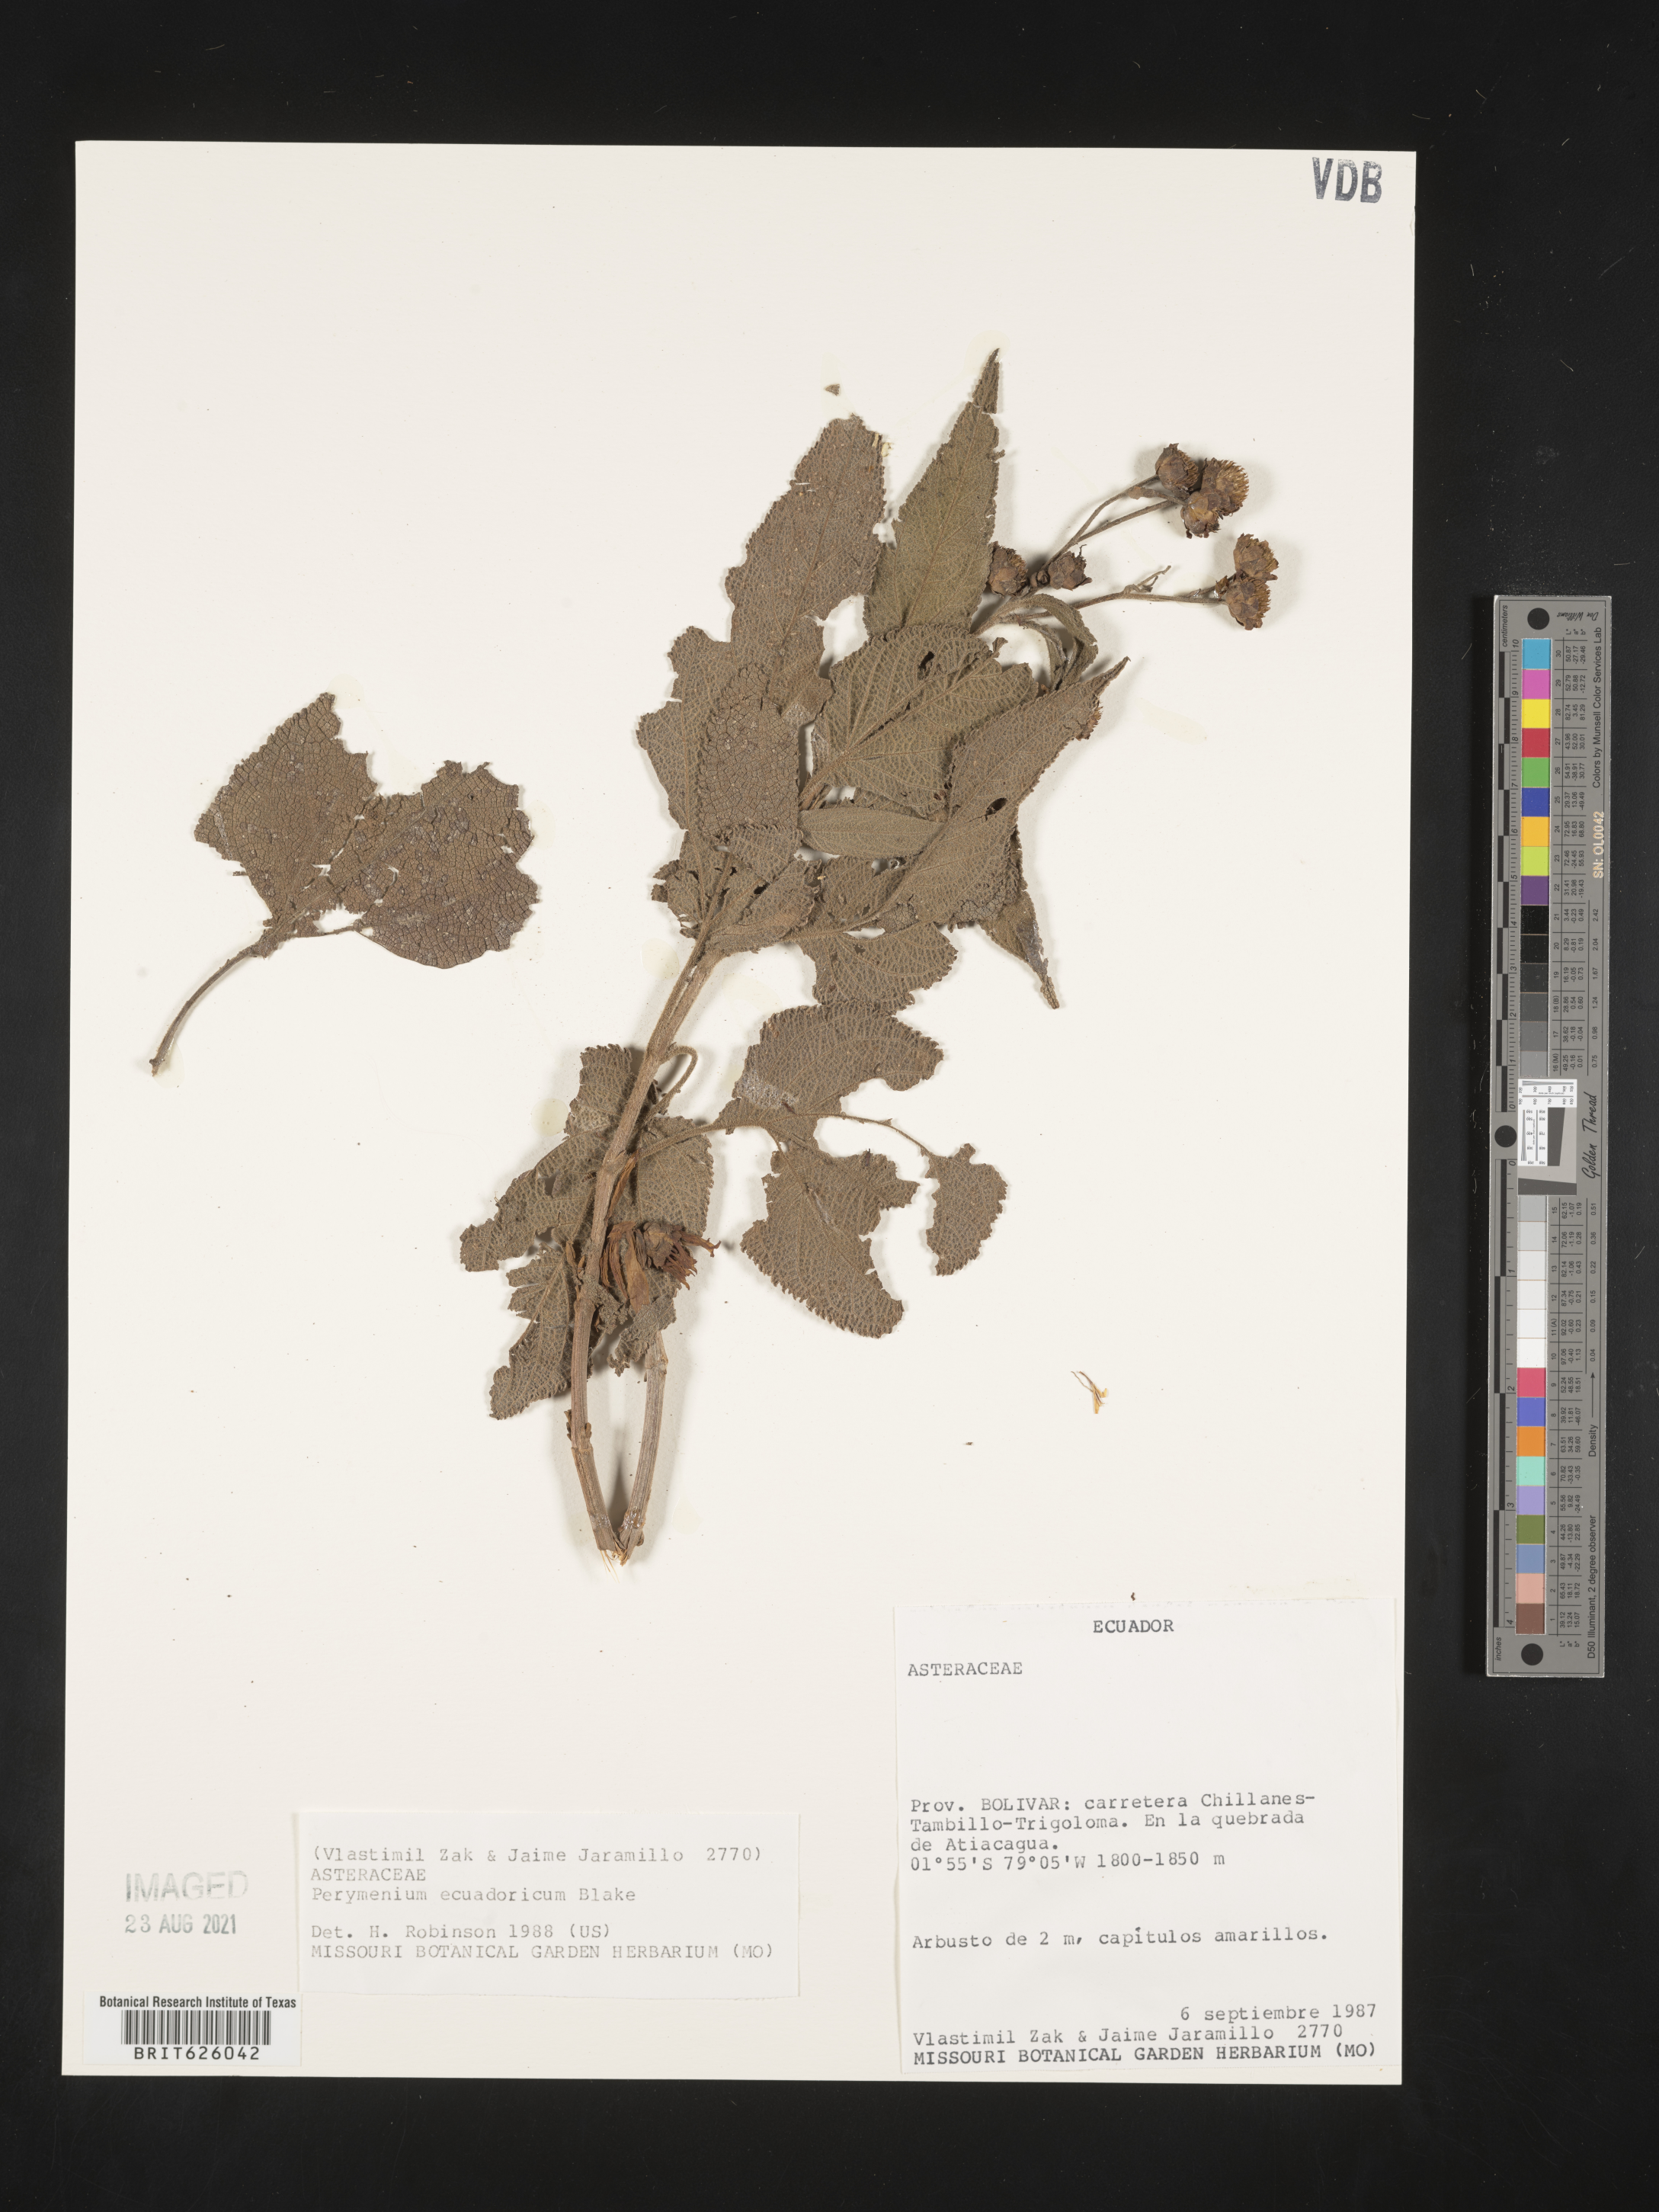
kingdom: Plantae
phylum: Tracheophyta
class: Magnoliopsida
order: Asterales
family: Asteraceae
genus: Perymenium
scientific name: Perymenium jelskii
